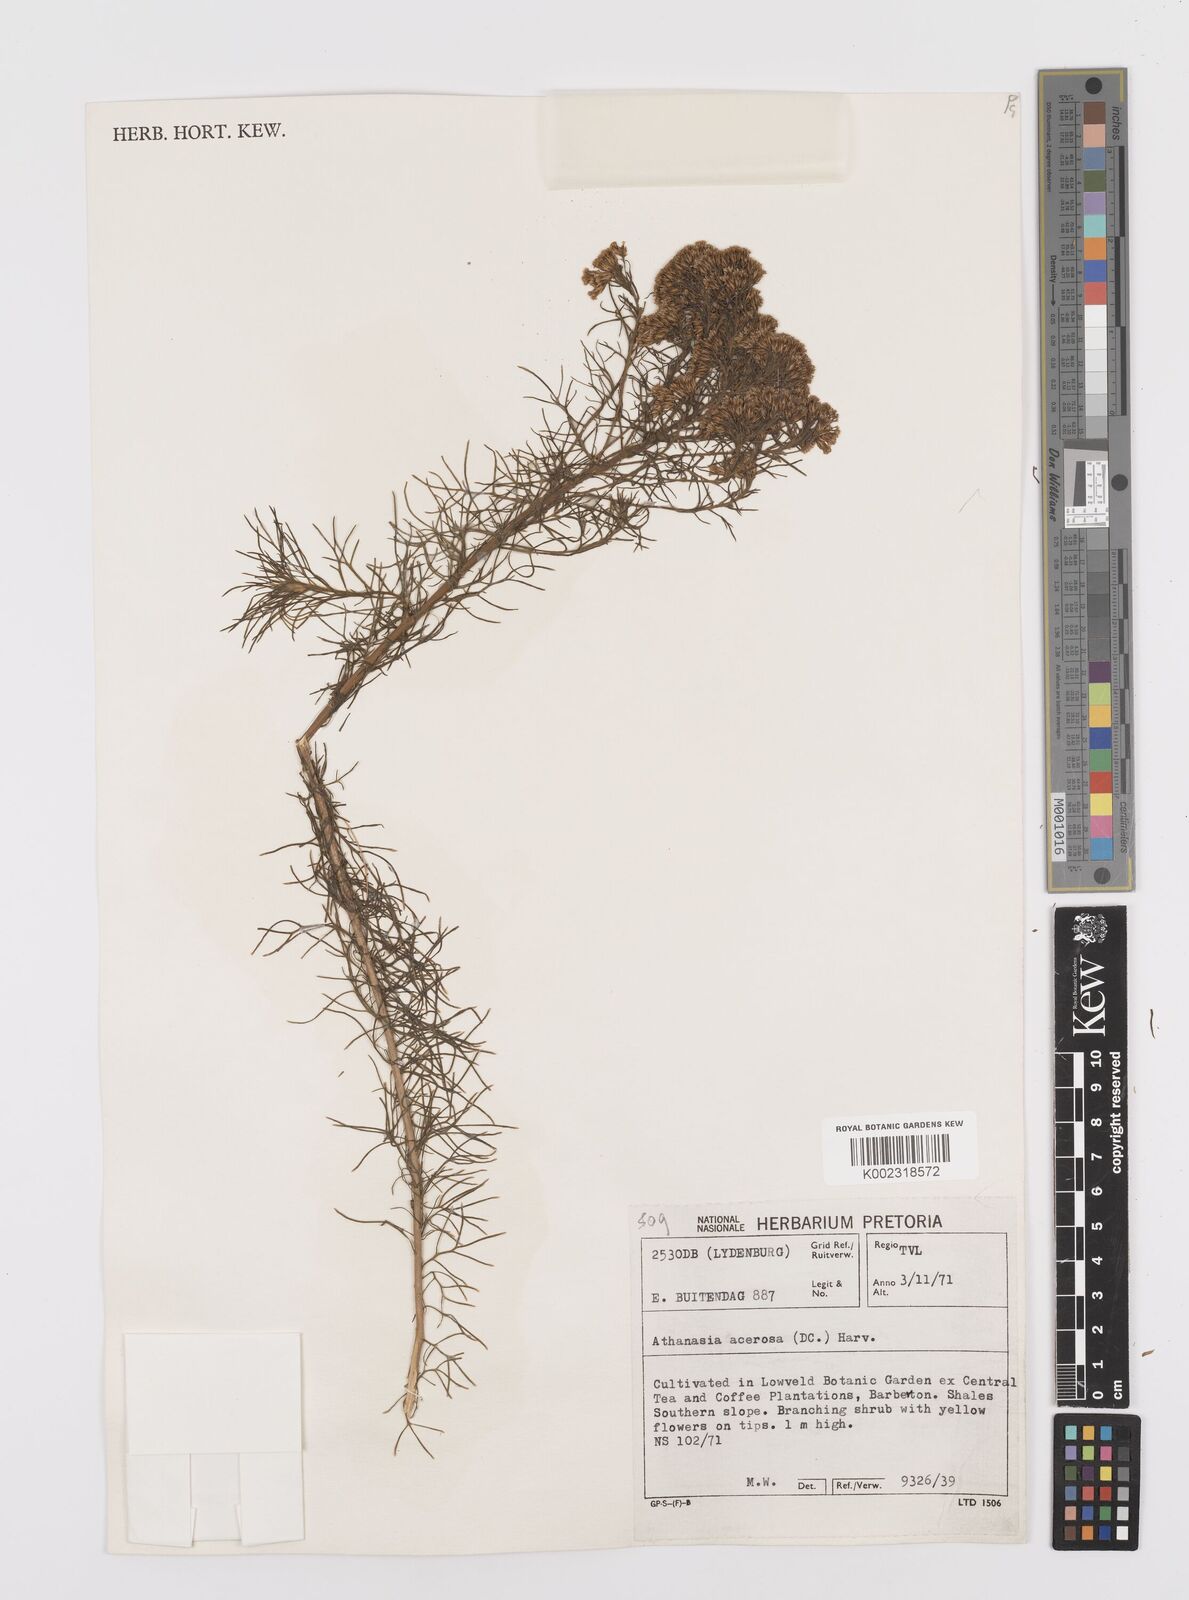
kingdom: Plantae
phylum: Tracheophyta
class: Magnoliopsida
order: Asterales
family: Asteraceae
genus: Phymaspermum
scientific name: Phymaspermum acerosum
